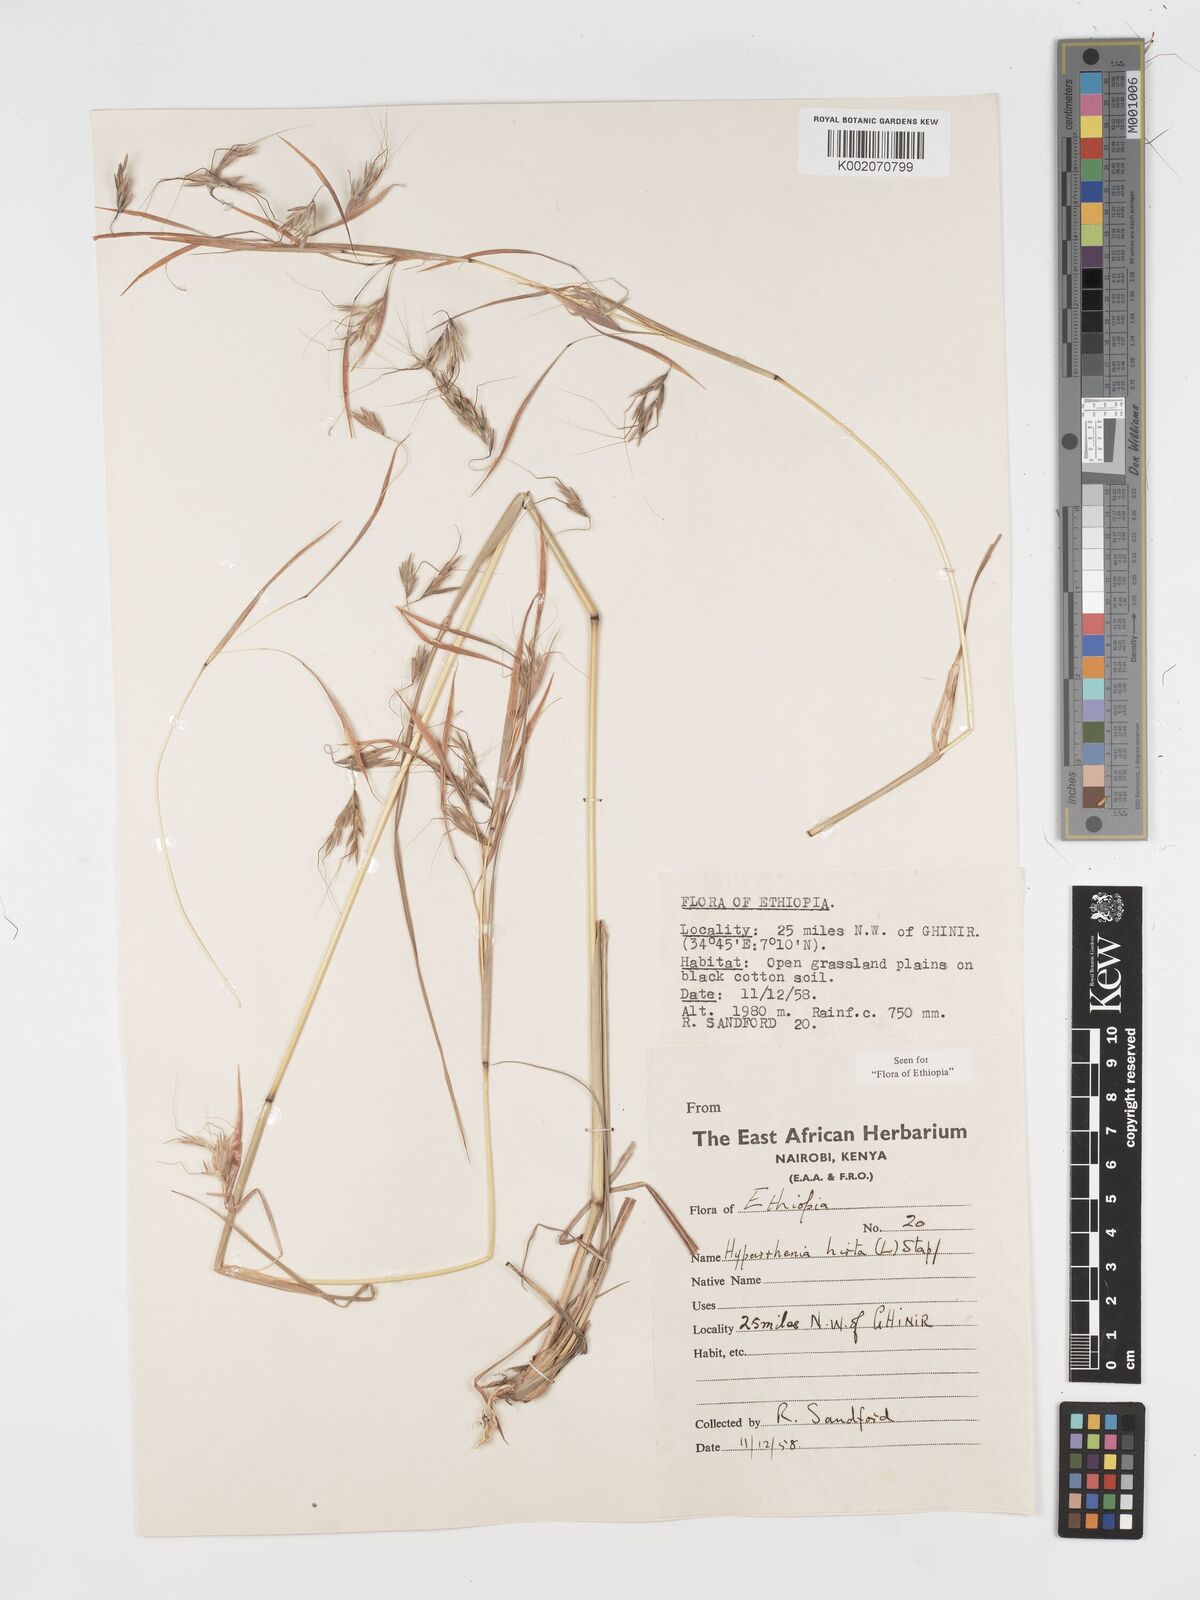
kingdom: Plantae
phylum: Tracheophyta
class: Liliopsida
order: Poales
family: Poaceae
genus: Hyparrhenia
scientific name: Hyparrhenia hirta
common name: Thatching grass
